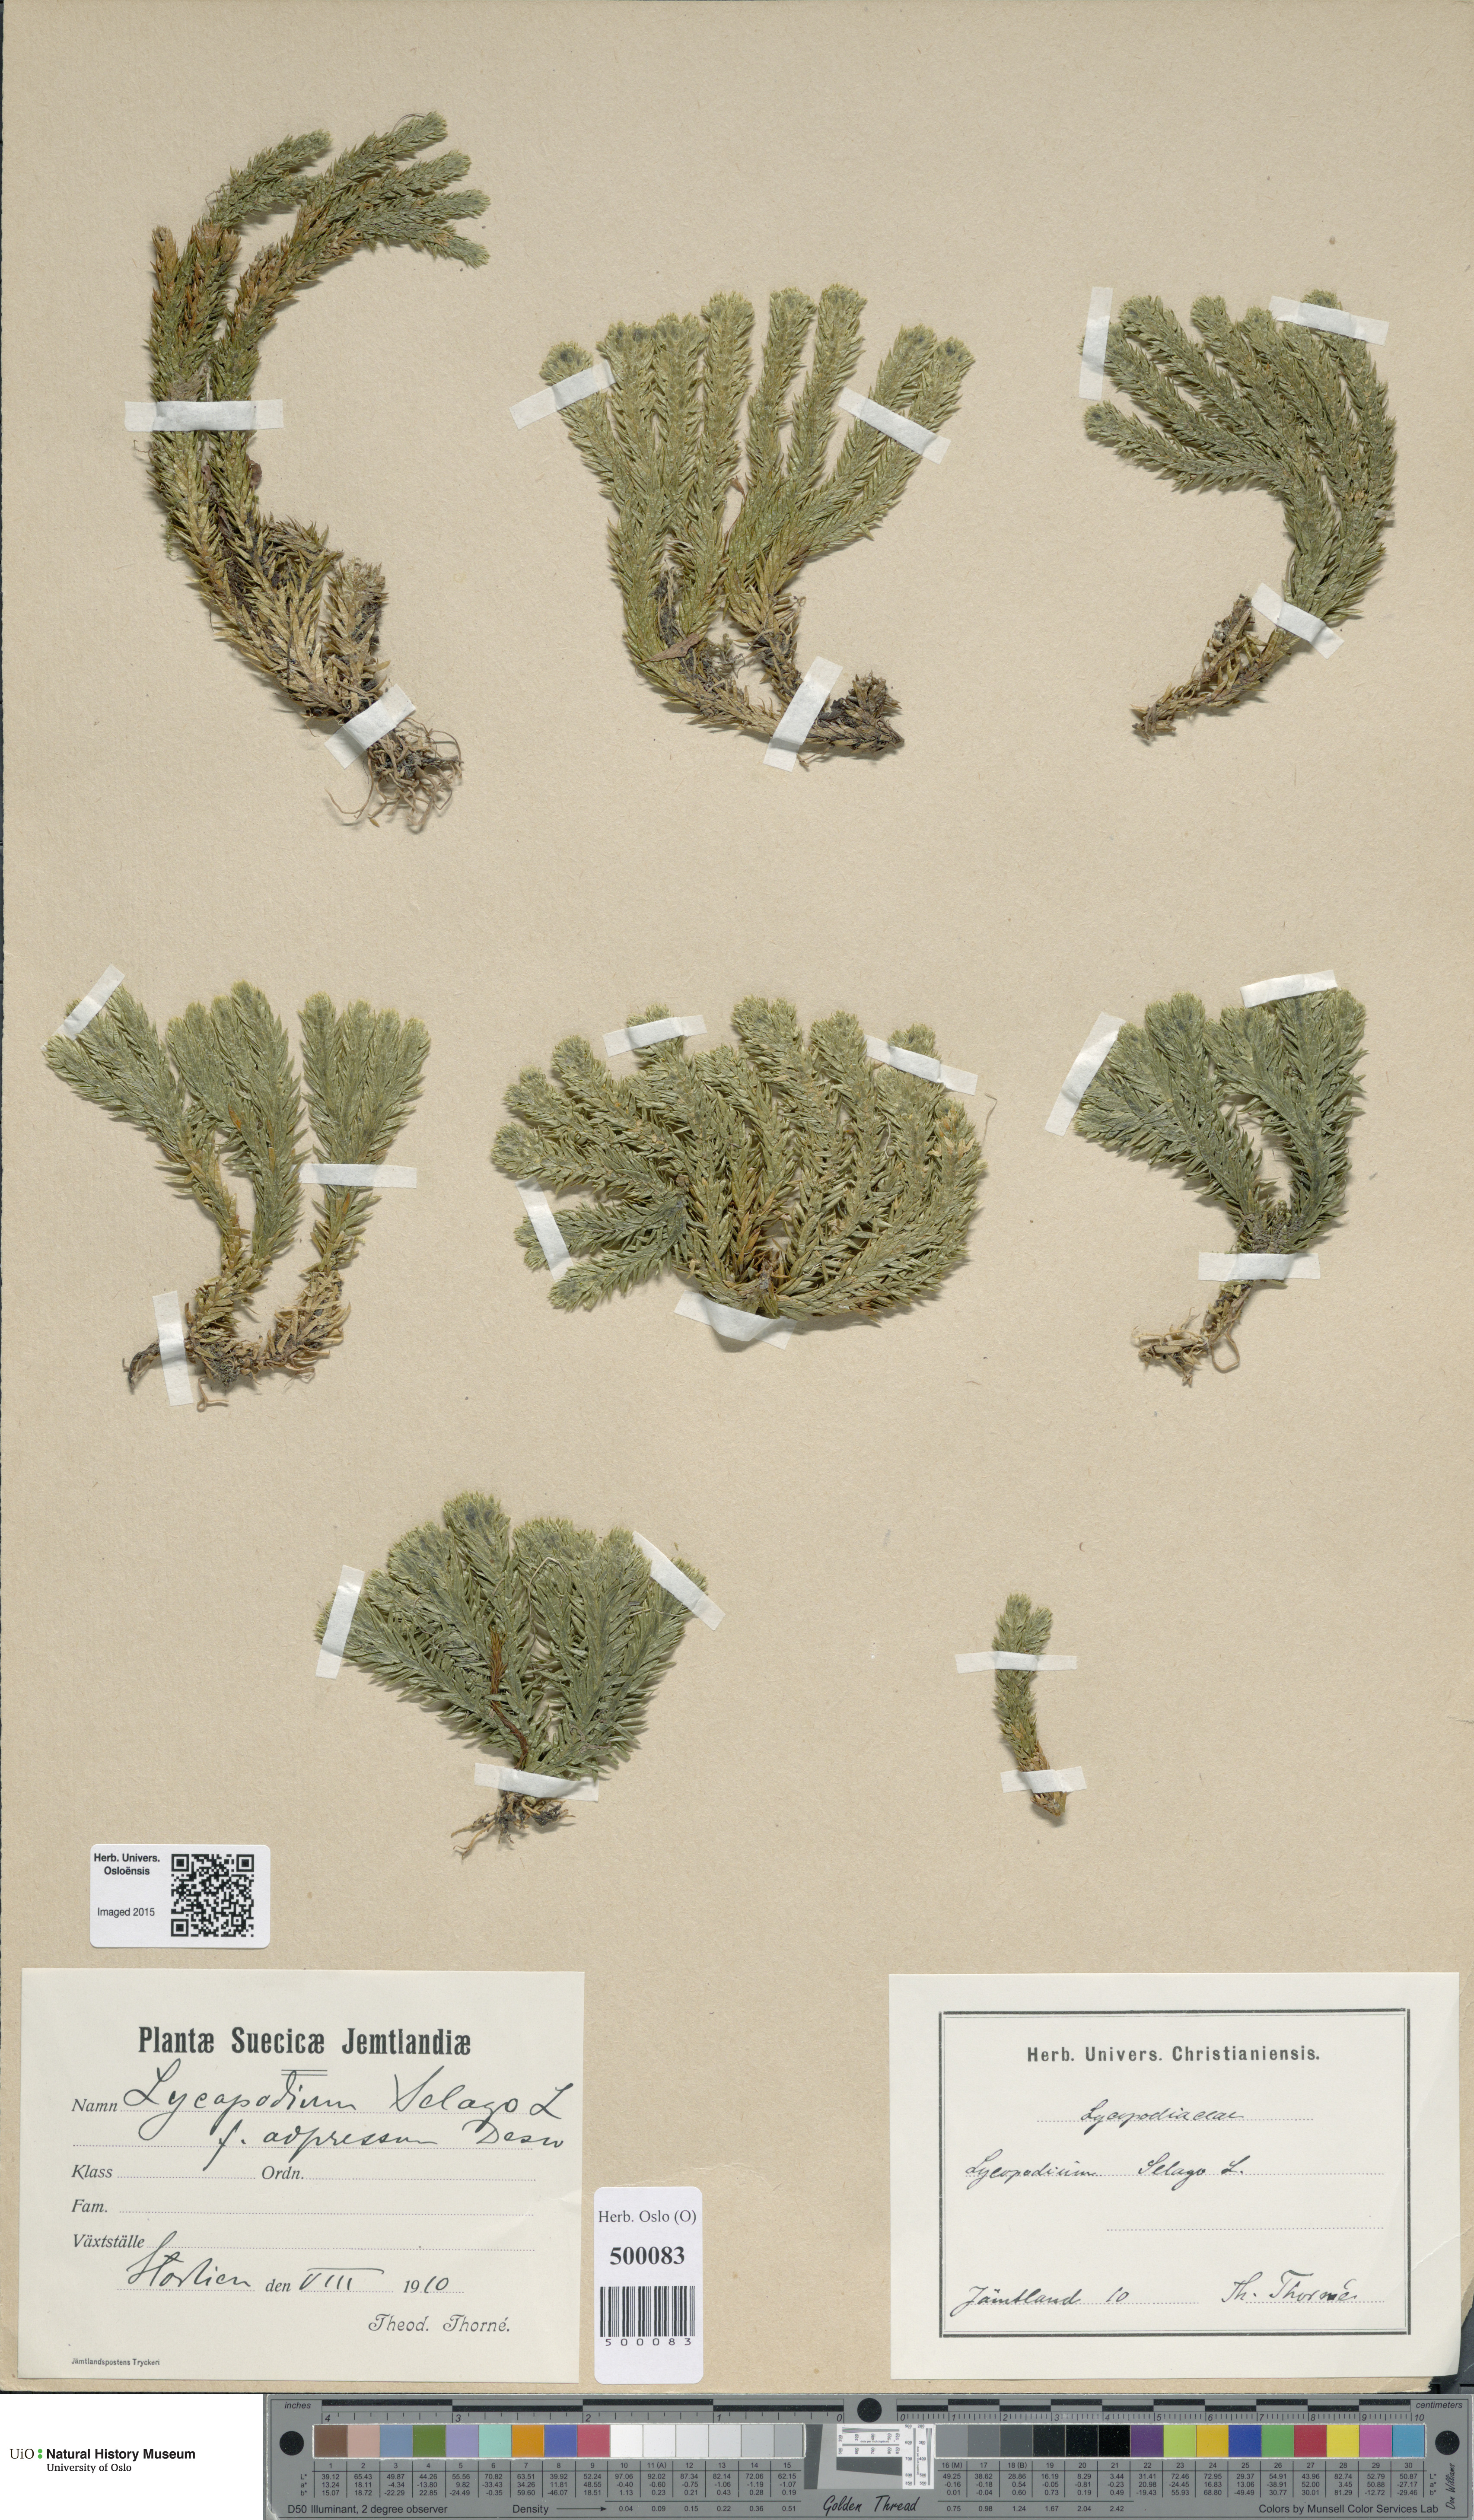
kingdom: Plantae
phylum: Tracheophyta
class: Lycopodiopsida
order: Lycopodiales
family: Lycopodiaceae
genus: Huperzia
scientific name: Huperzia selago
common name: Northern firmoss
